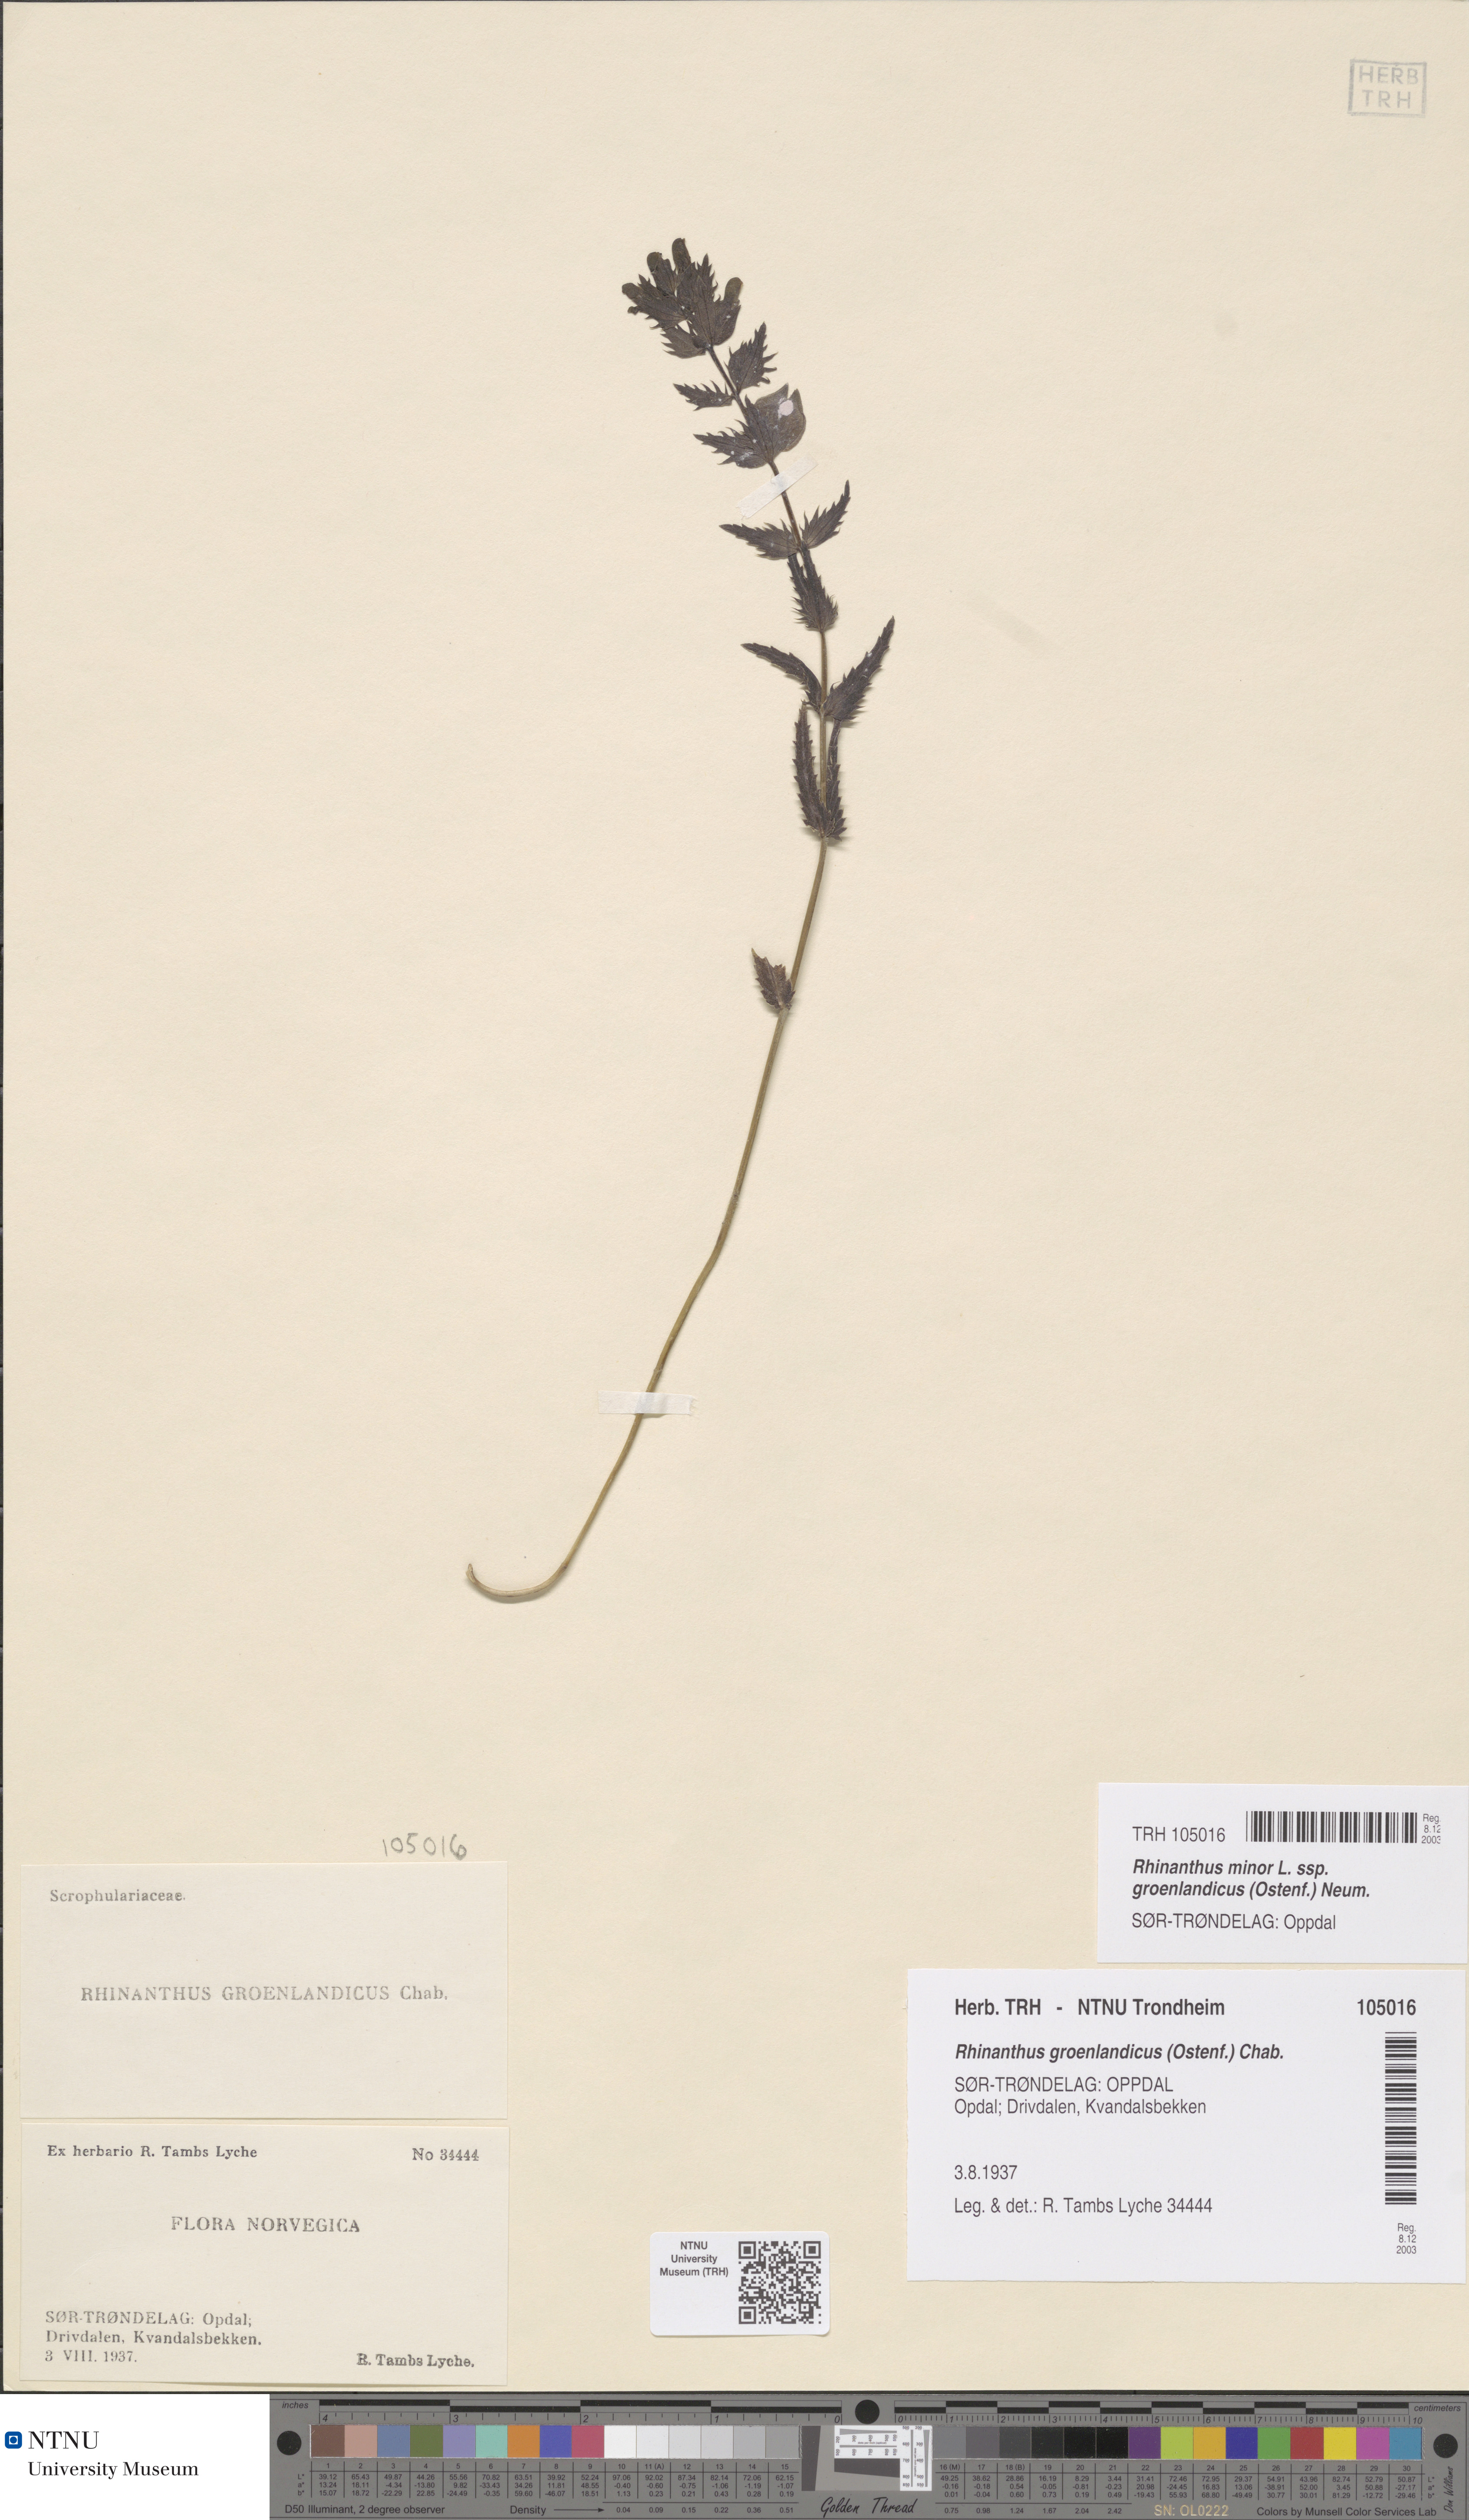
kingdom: Plantae
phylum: Tracheophyta
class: Magnoliopsida
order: Lamiales
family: Orobanchaceae
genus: Rhinanthus
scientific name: Rhinanthus groenlandicus
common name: Little yellow rattle
